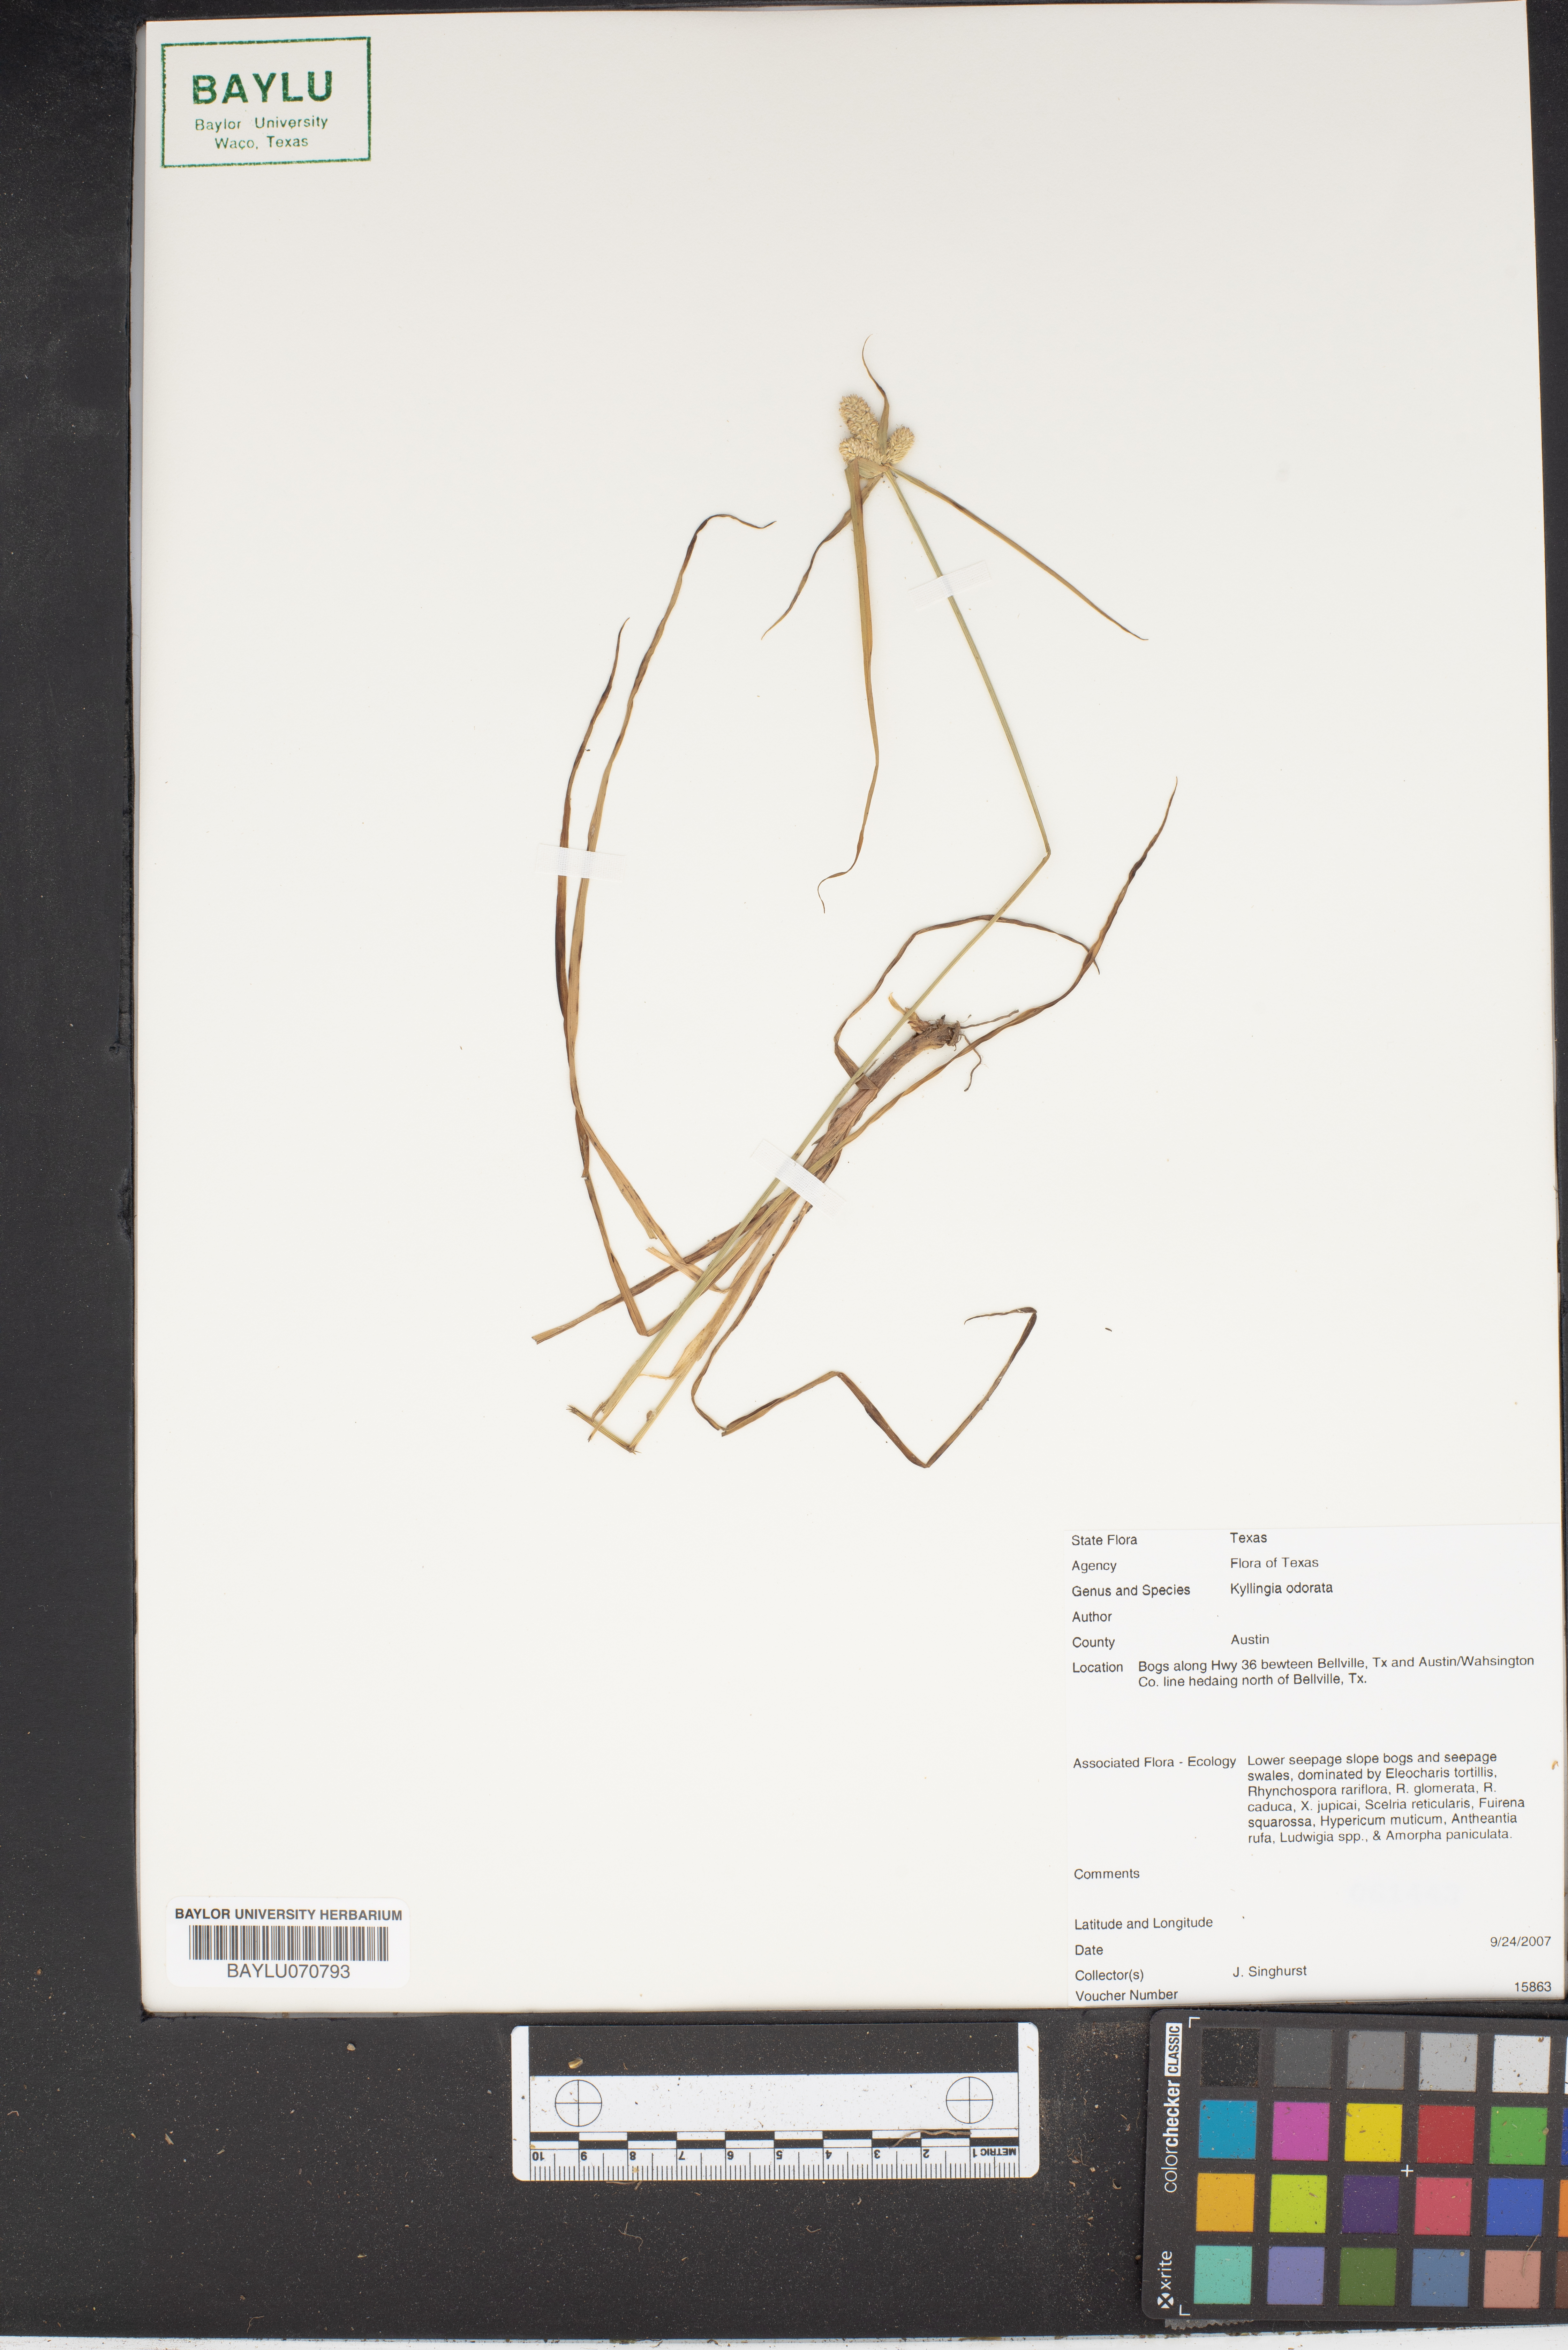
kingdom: Plantae
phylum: Tracheophyta
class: Liliopsida
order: Poales
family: Cyperaceae
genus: Cyperus
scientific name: Cyperus sesquiflorus
